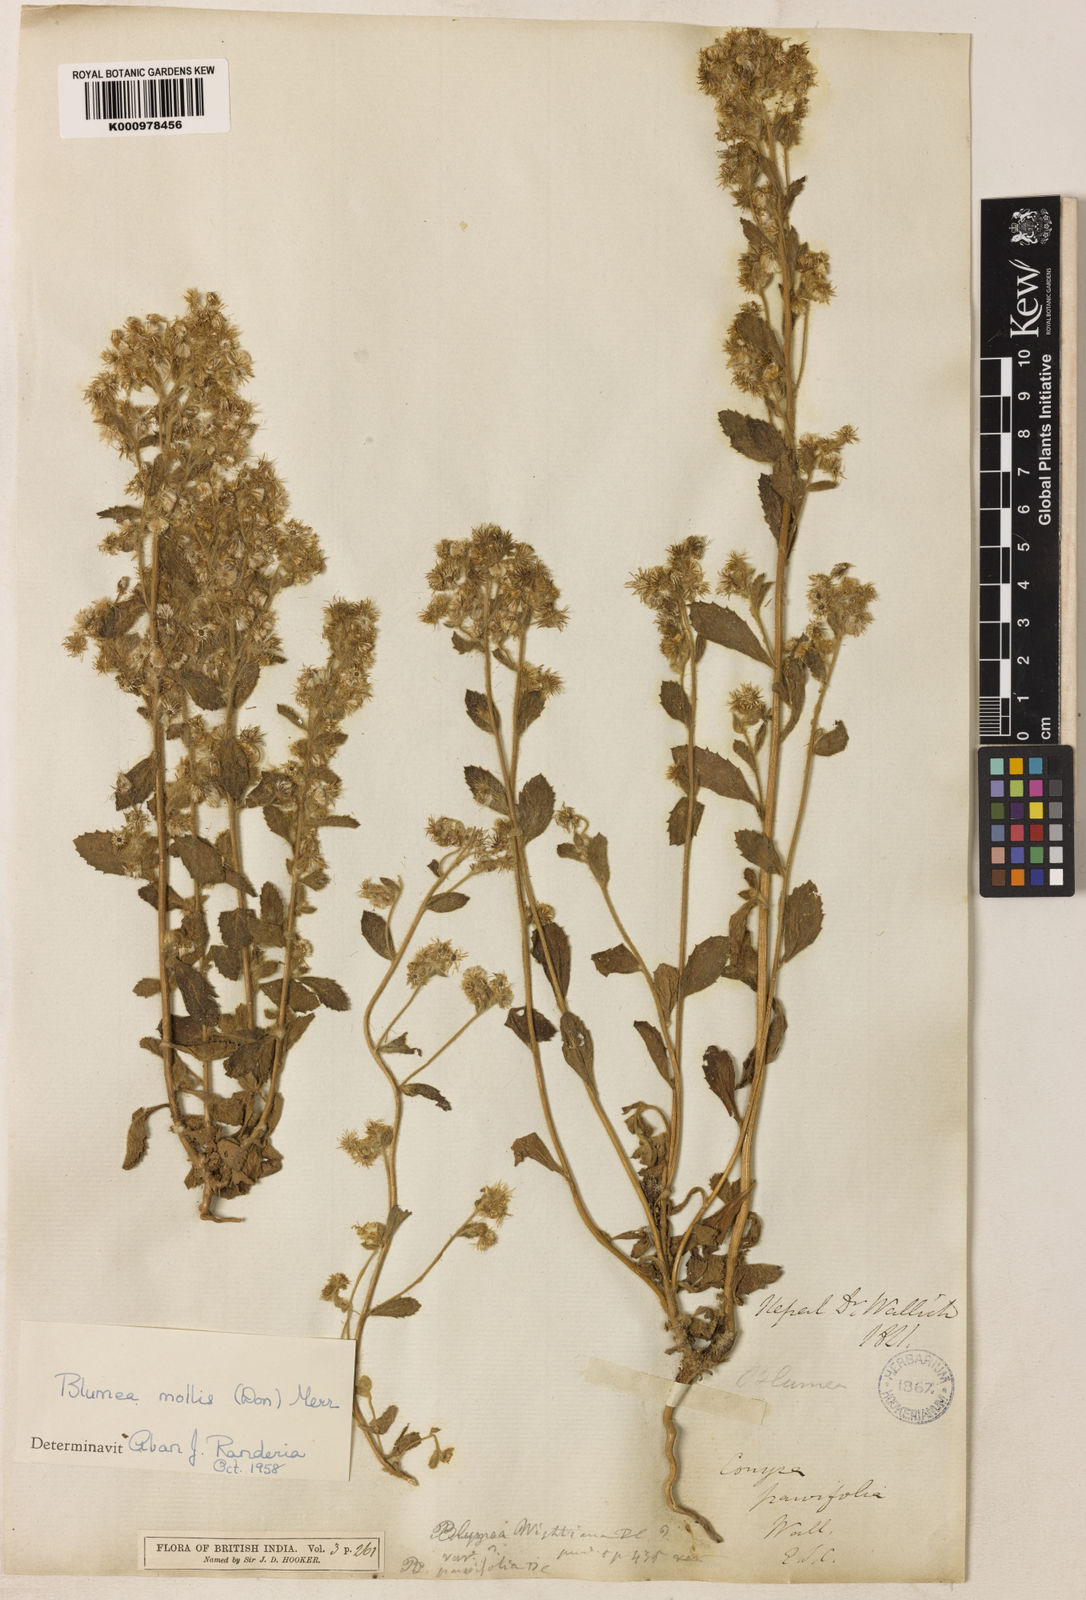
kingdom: Plantae
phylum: Tracheophyta
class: Magnoliopsida
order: Asterales
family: Asteraceae
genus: Blumea
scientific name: Blumea axillaris
